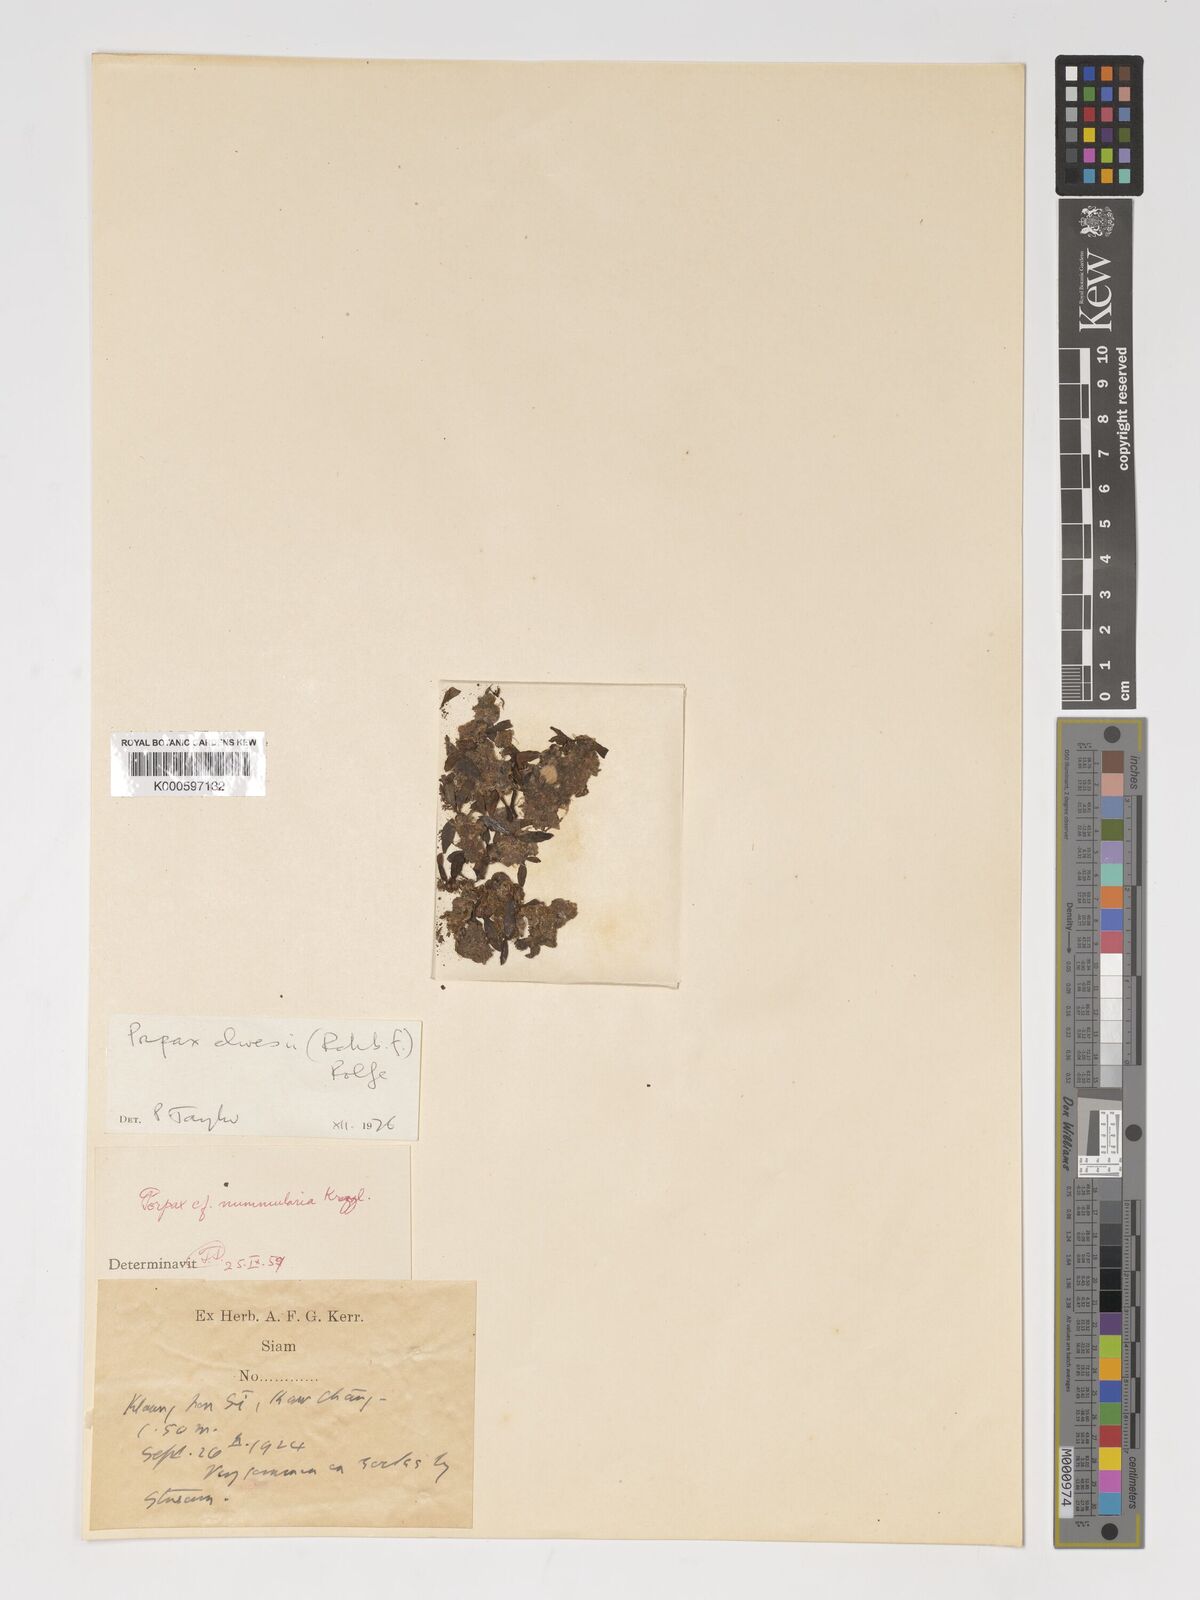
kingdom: Plantae
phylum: Tracheophyta
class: Liliopsida
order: Asparagales
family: Orchidaceae
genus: Porpax
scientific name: Porpax elwesii
